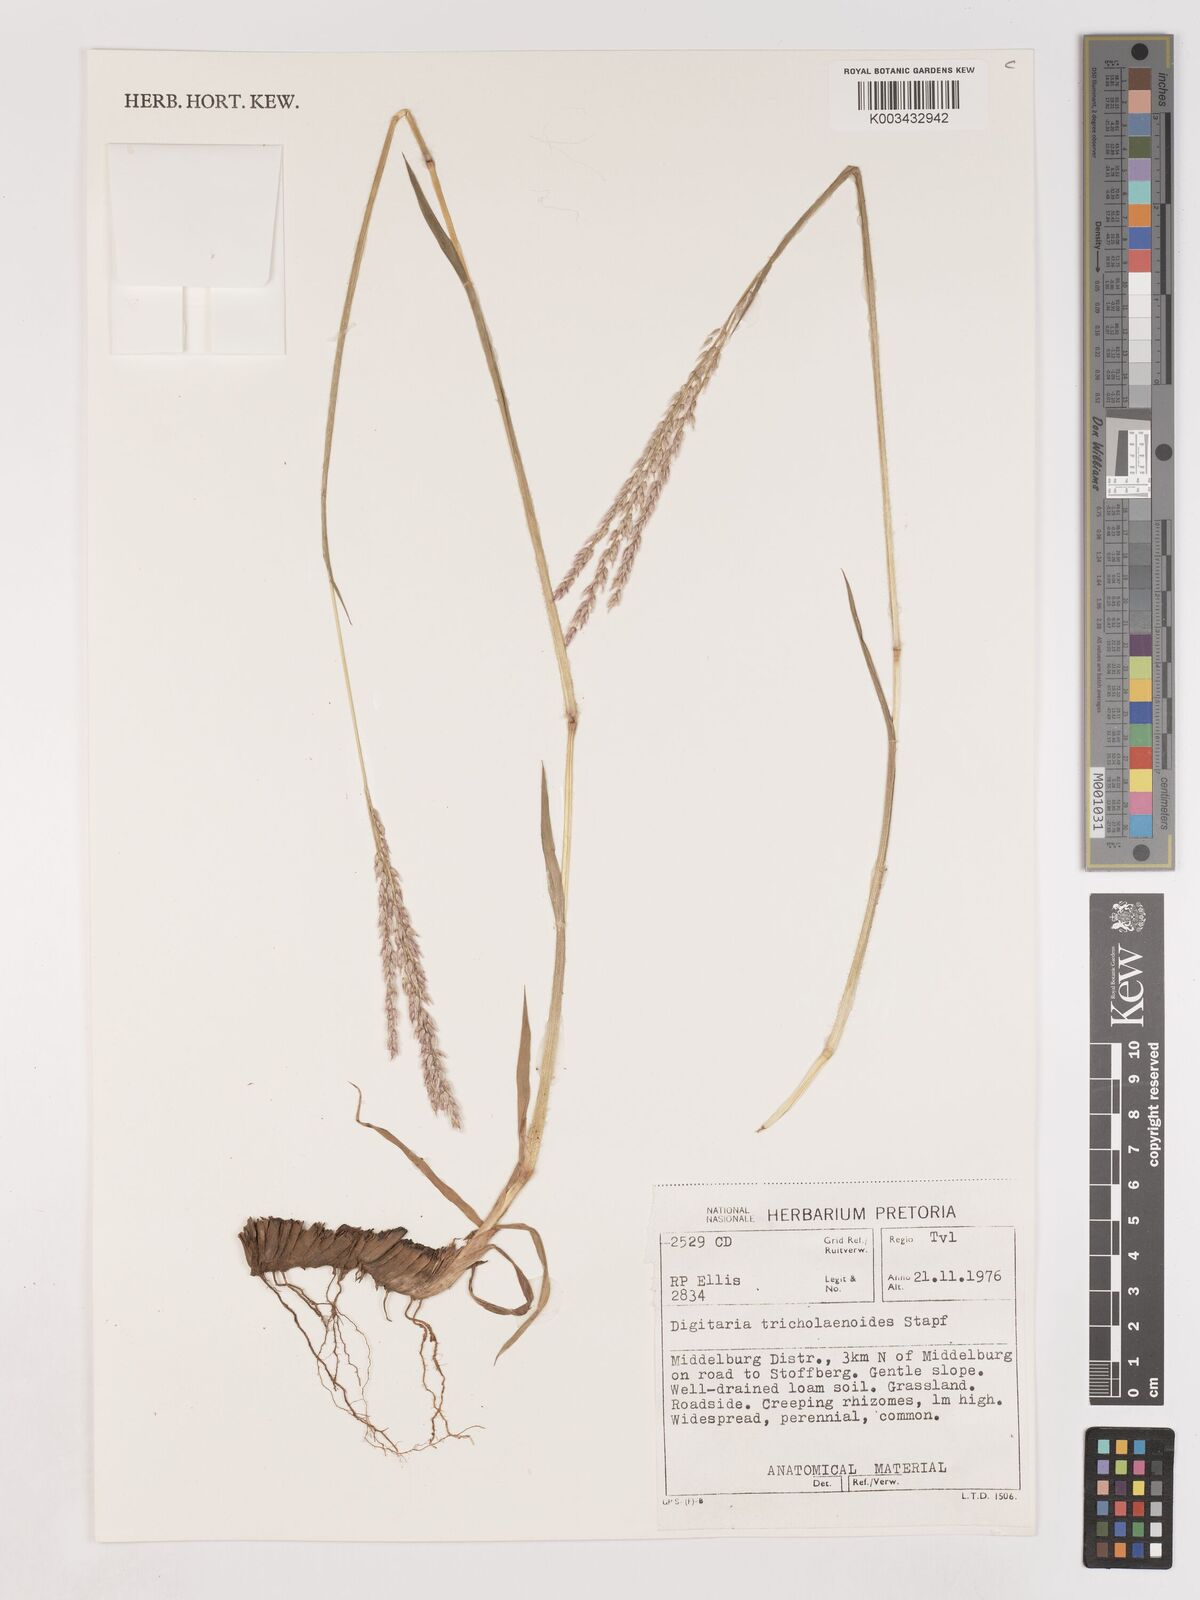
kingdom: Plantae
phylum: Tracheophyta
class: Liliopsida
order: Poales
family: Poaceae
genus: Digitaria
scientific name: Digitaria tricholaenoides
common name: Purple finger grass
